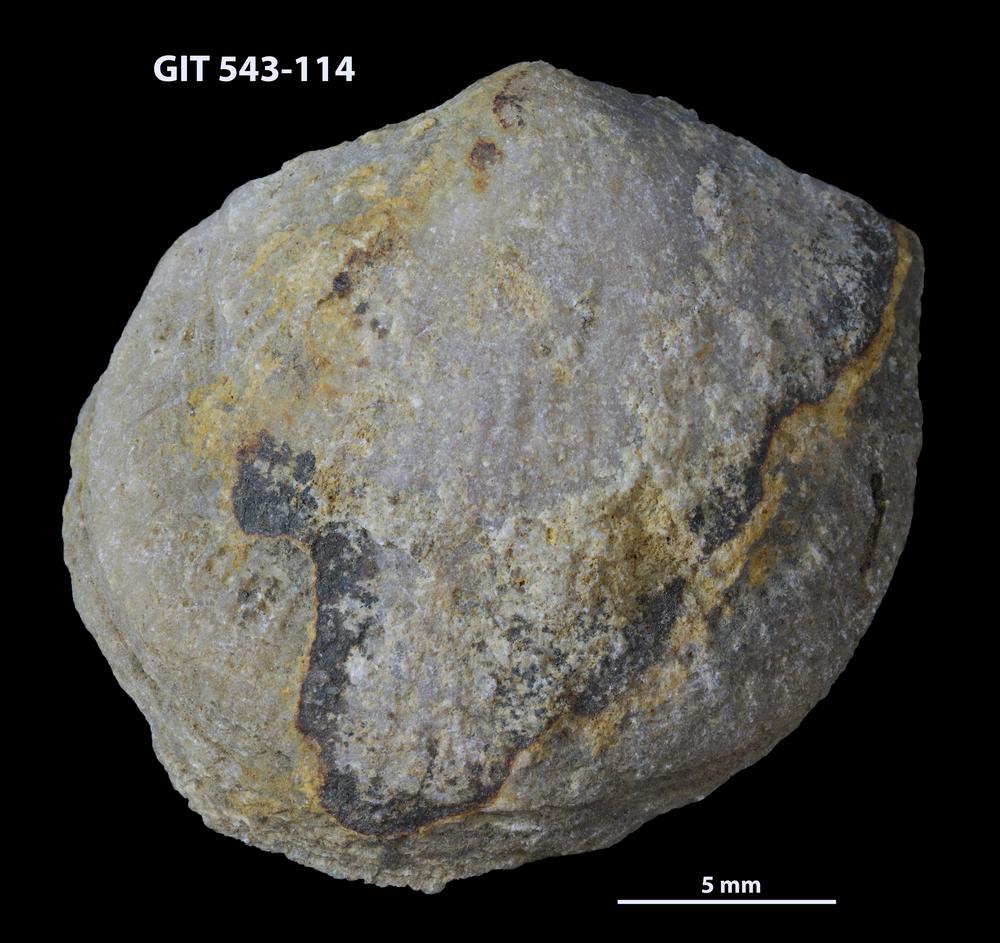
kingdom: Animalia
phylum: Brachiopoda
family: Gonambonitidae
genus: Estlandia
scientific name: Estlandia Orthisina marginata
